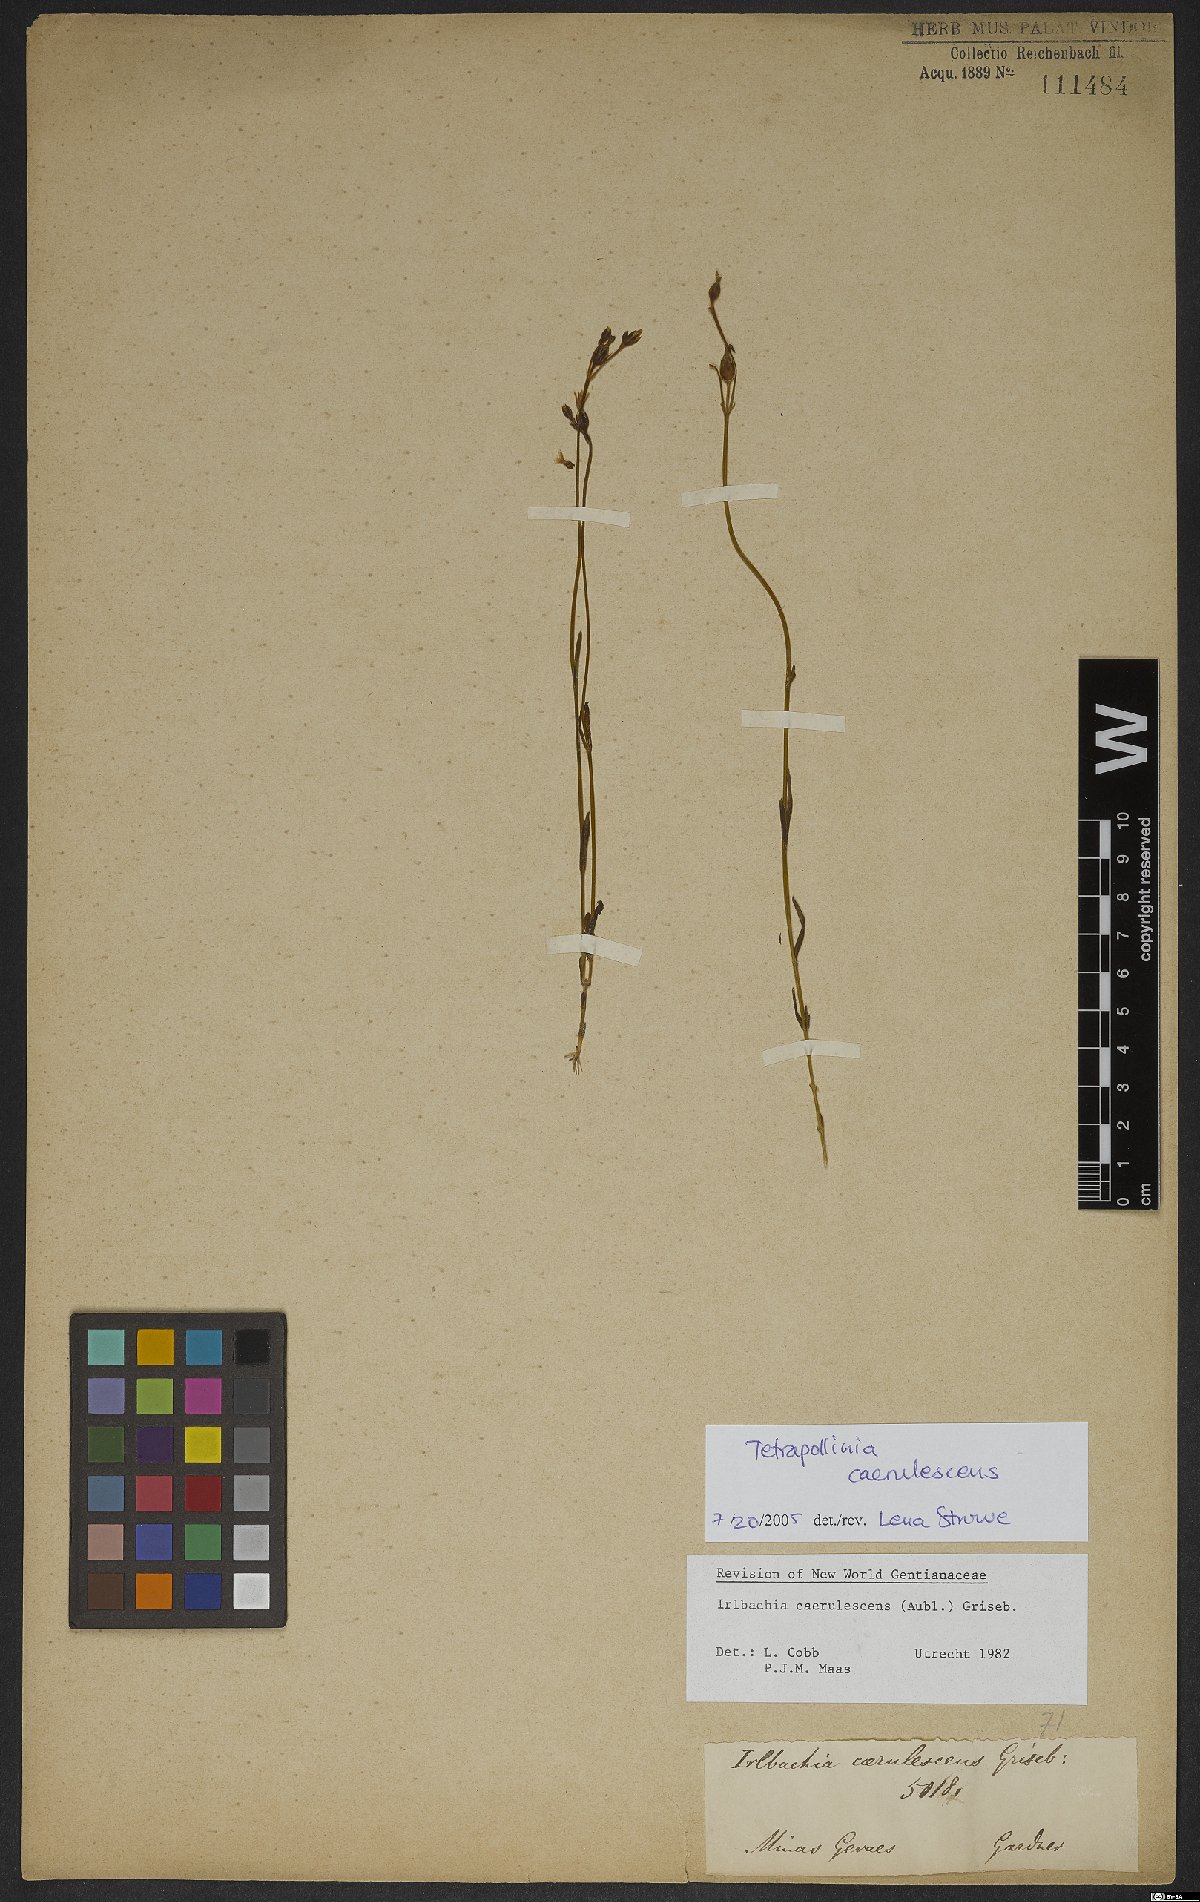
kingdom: Plantae
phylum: Tracheophyta
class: Magnoliopsida
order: Gentianales
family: Gentianaceae
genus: Tetrapollinia
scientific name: Tetrapollinia caerulescens
